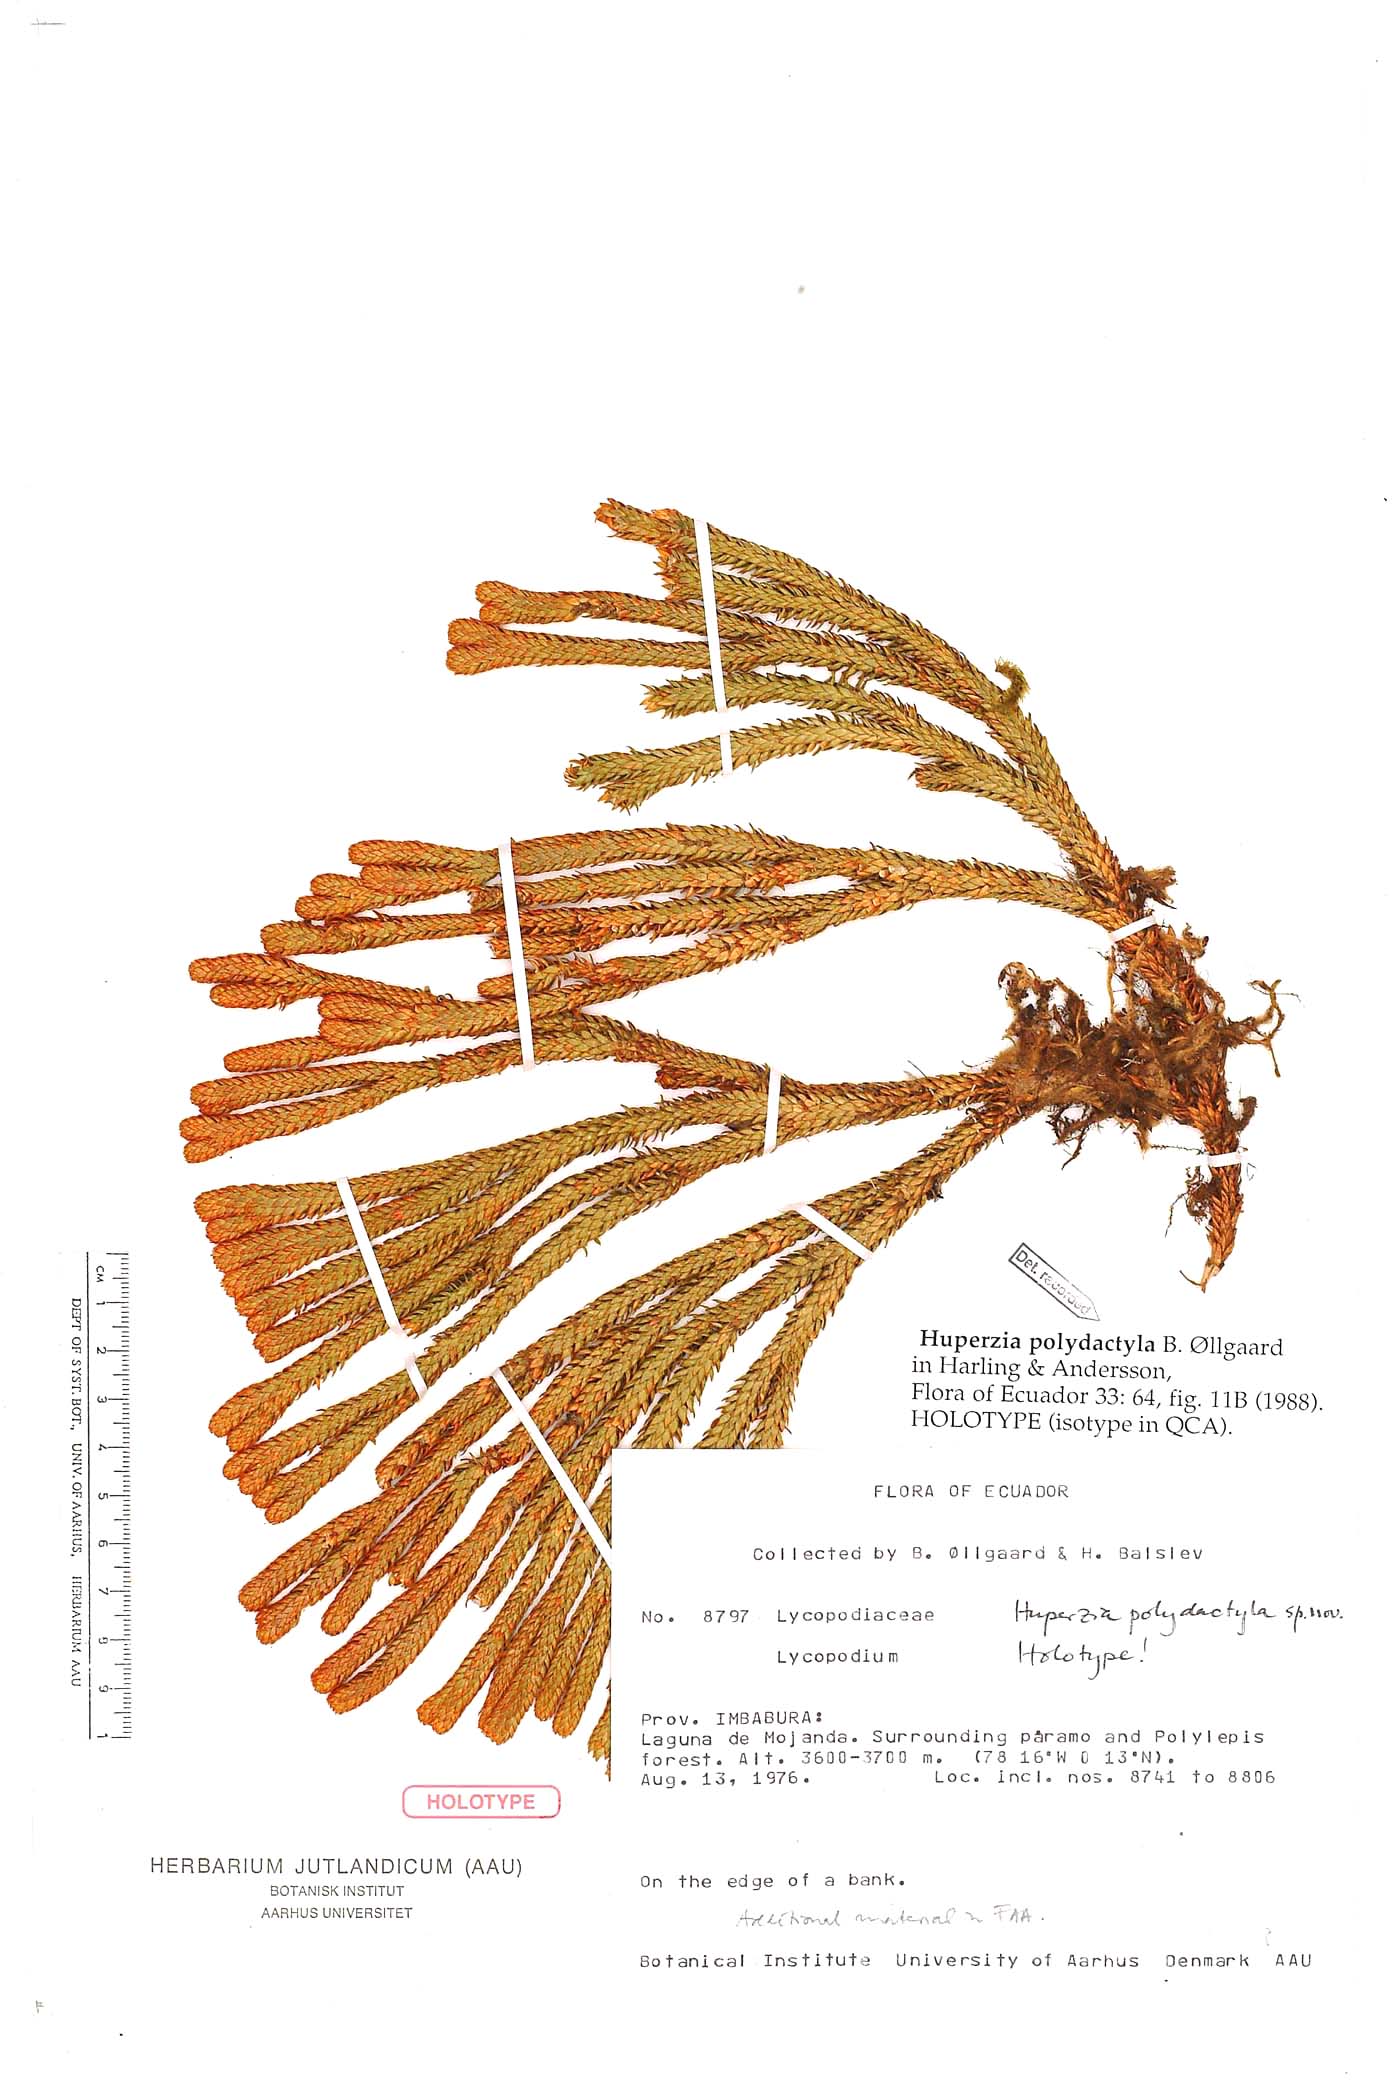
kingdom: Plantae
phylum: Tracheophyta
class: Lycopodiopsida
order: Lycopodiales
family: Lycopodiaceae
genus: Phlegmariurus
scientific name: Phlegmariurus polydactylus
